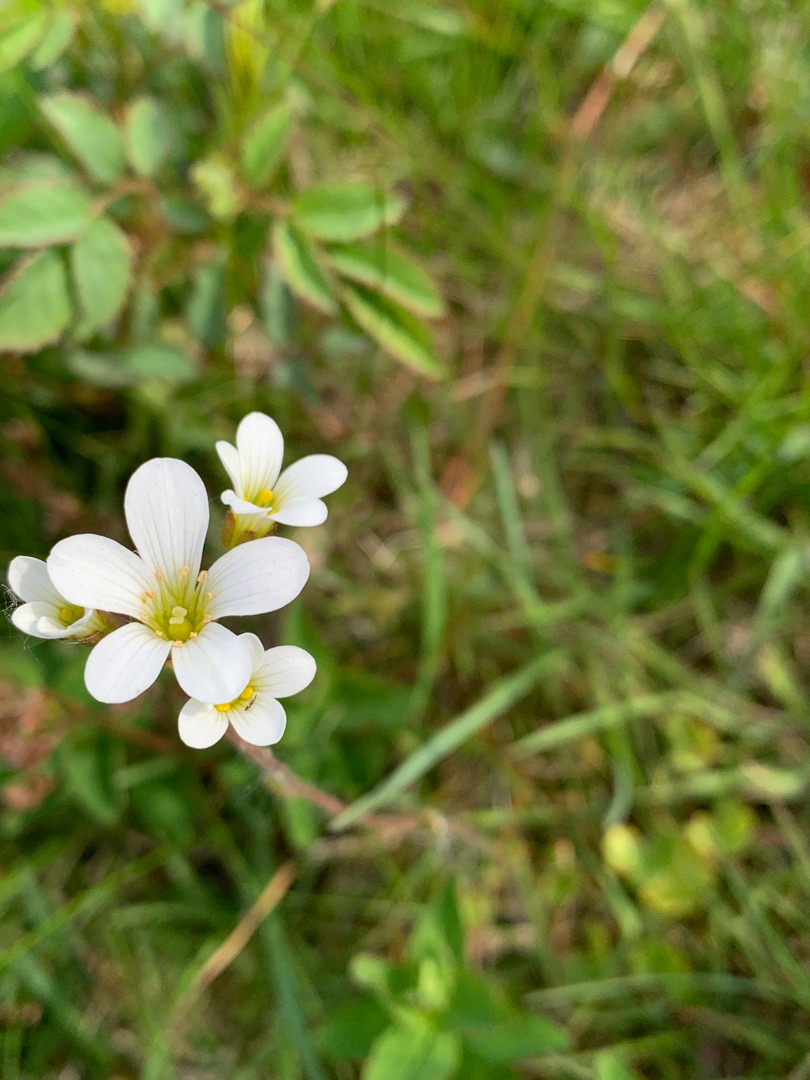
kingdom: Plantae
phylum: Tracheophyta
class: Magnoliopsida
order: Saxifragales
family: Saxifragaceae
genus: Saxifraga
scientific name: Saxifraga granulata
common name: Kornet stenbræk
